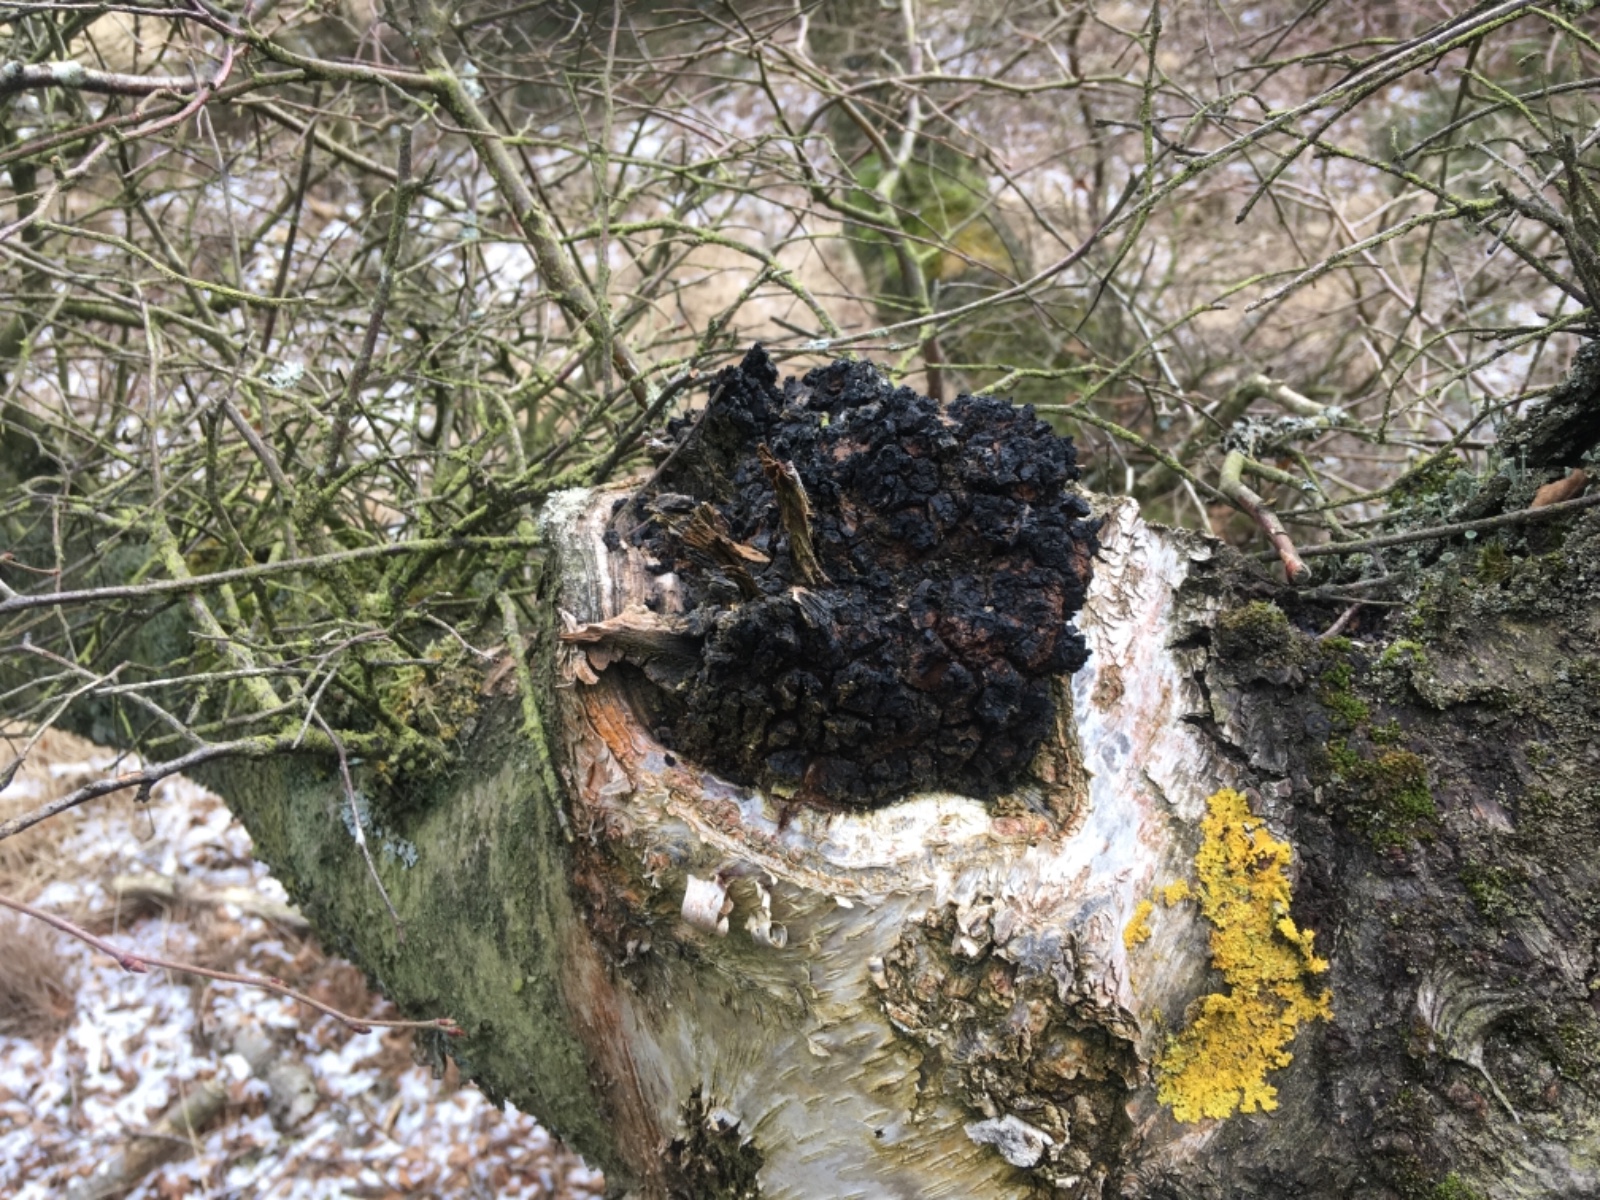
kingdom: Fungi
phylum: Basidiomycota
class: Agaricomycetes
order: Hymenochaetales
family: Hymenochaetaceae
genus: Inonotus
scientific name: Inonotus obliquus
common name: birke-spejlporesvamp
